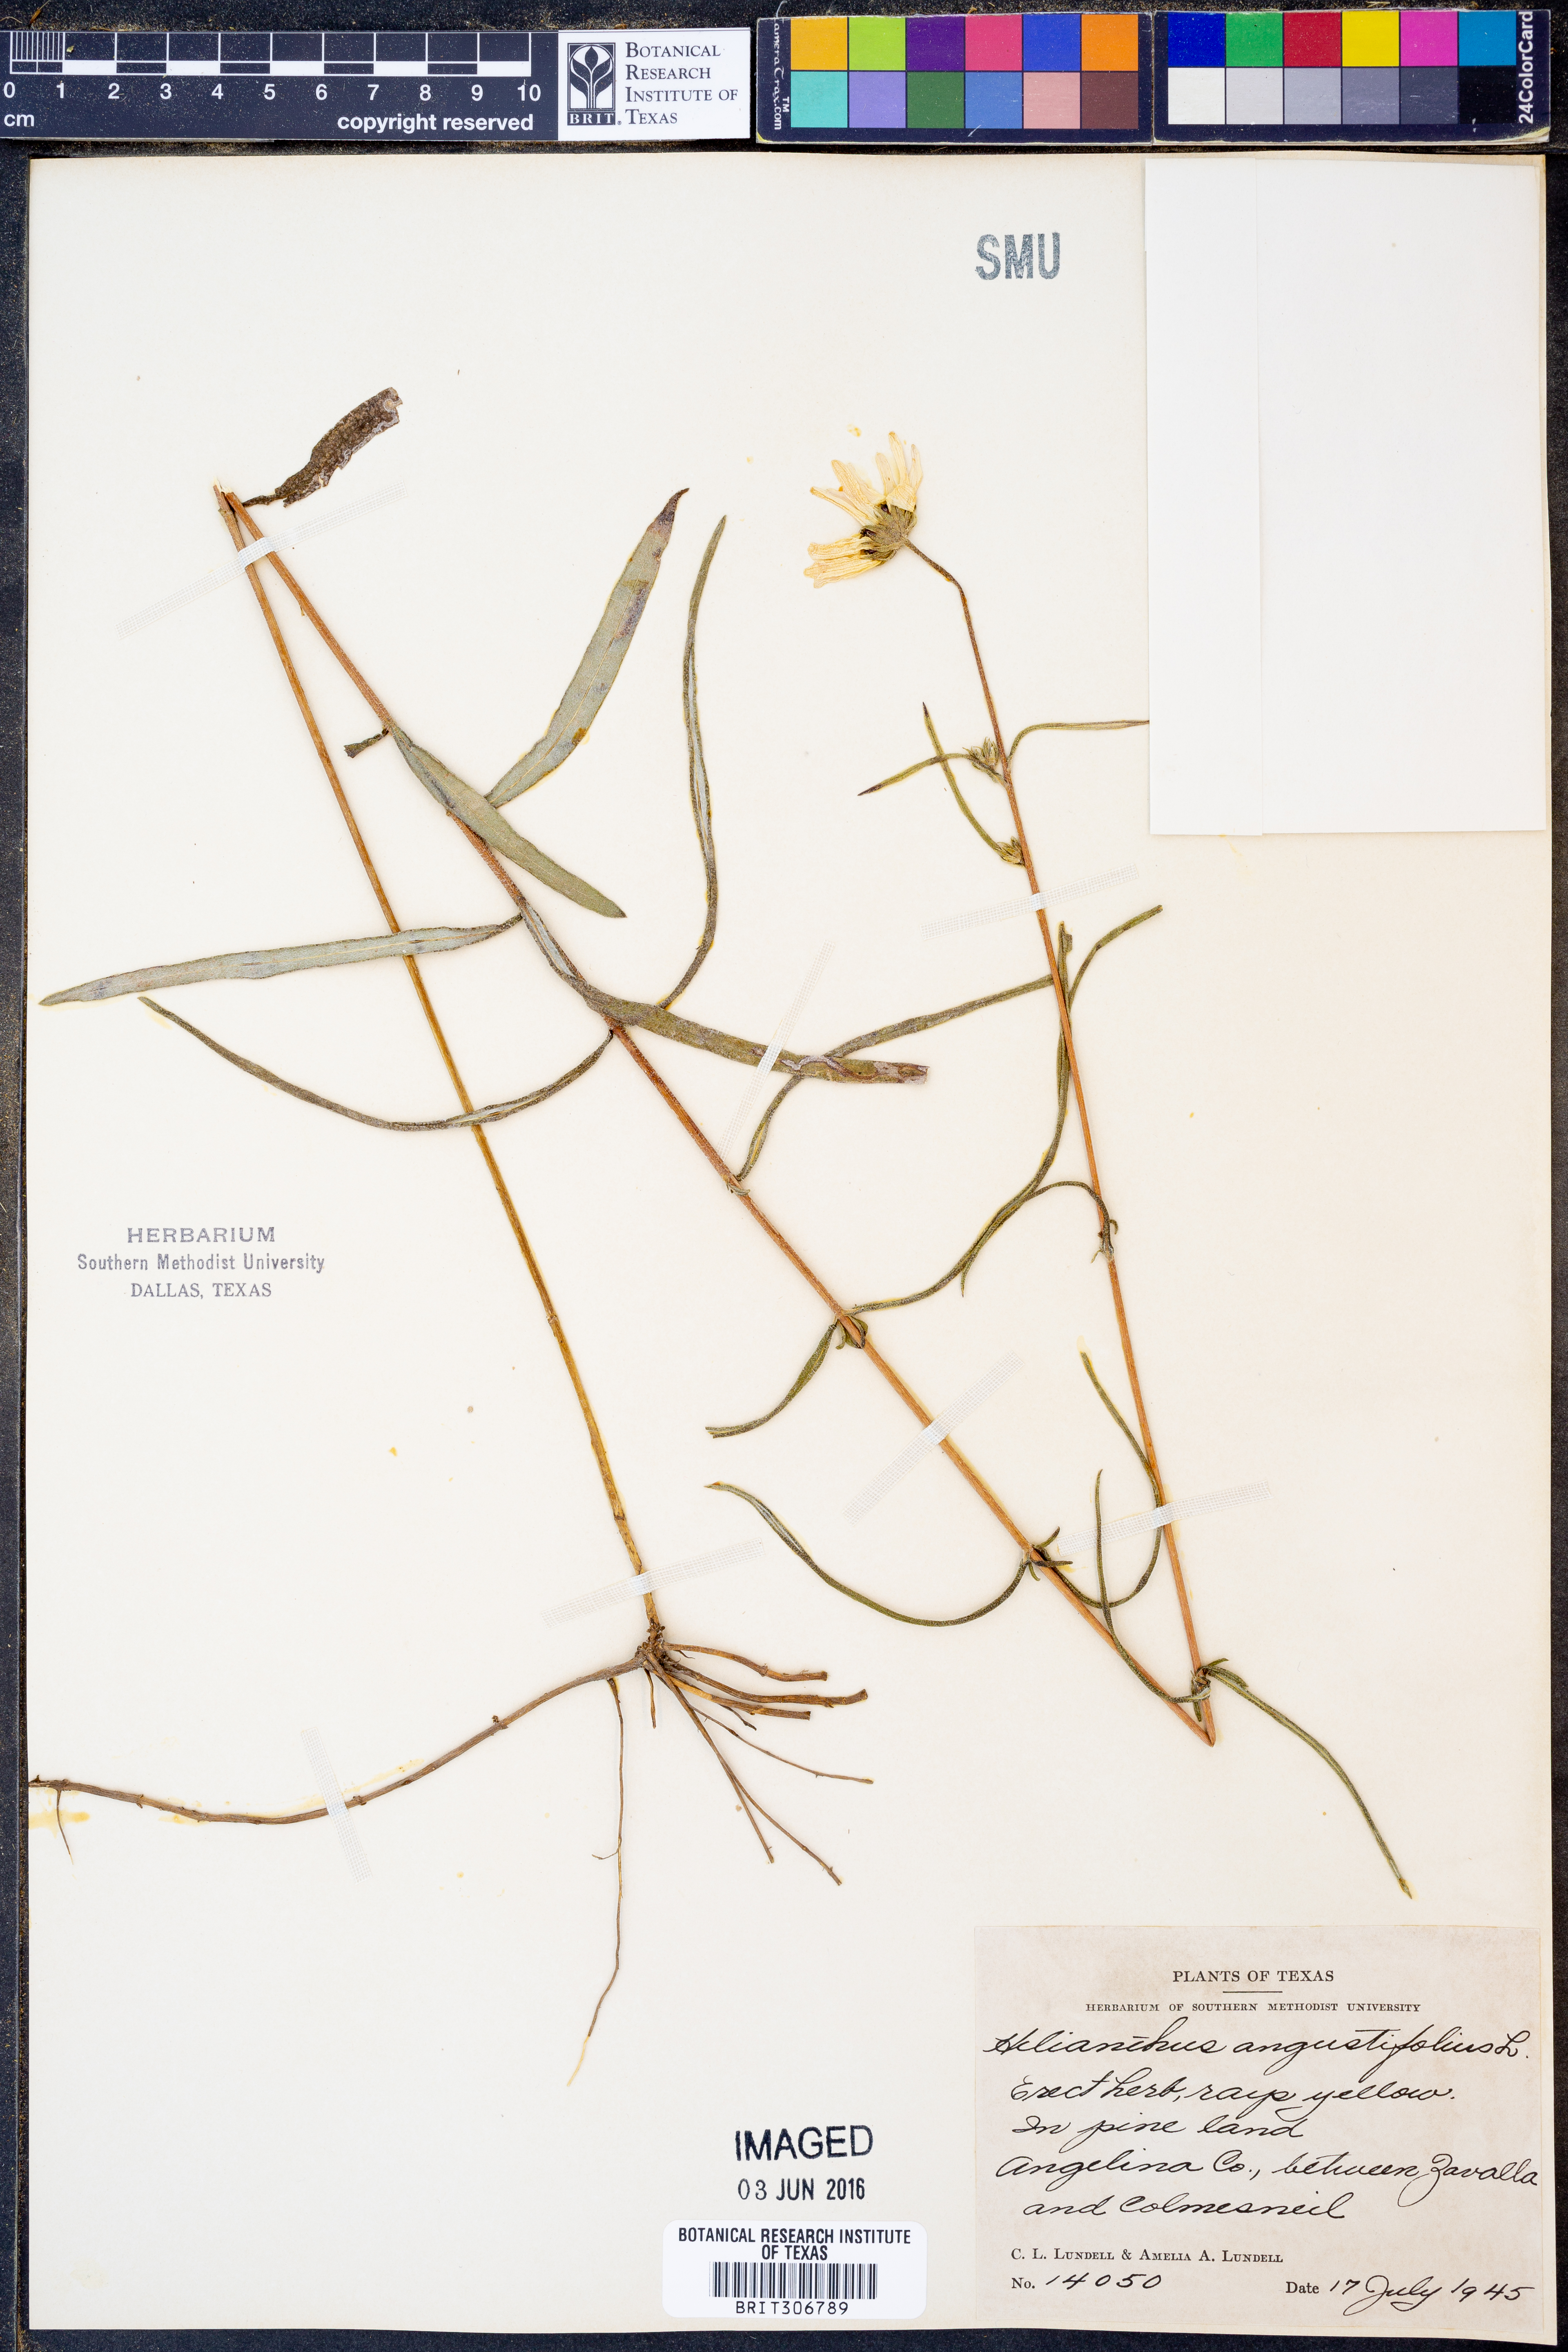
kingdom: Plantae
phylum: Tracheophyta
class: Magnoliopsida
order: Asterales
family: Asteraceae
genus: Helianthus
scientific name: Helianthus angustifolius
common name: Swamp sunflower
